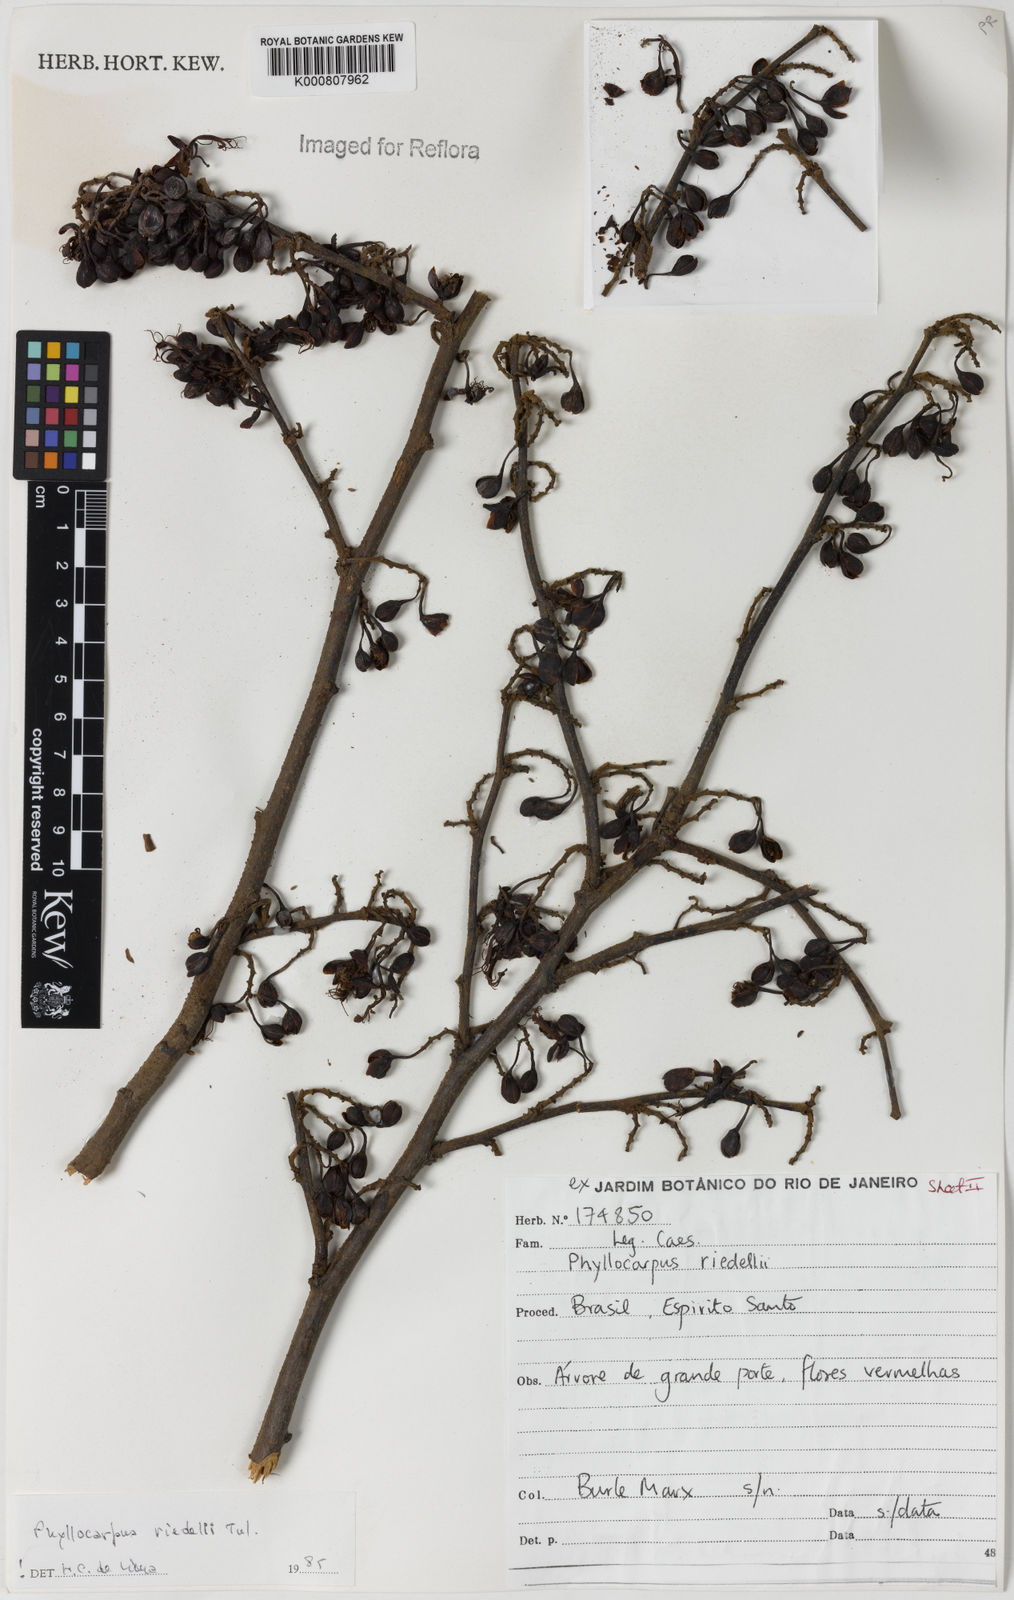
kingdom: Plantae
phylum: Tracheophyta
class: Magnoliopsida
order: Fabales
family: Fabaceae
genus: Barnebydendron
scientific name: Barnebydendron riedelii
